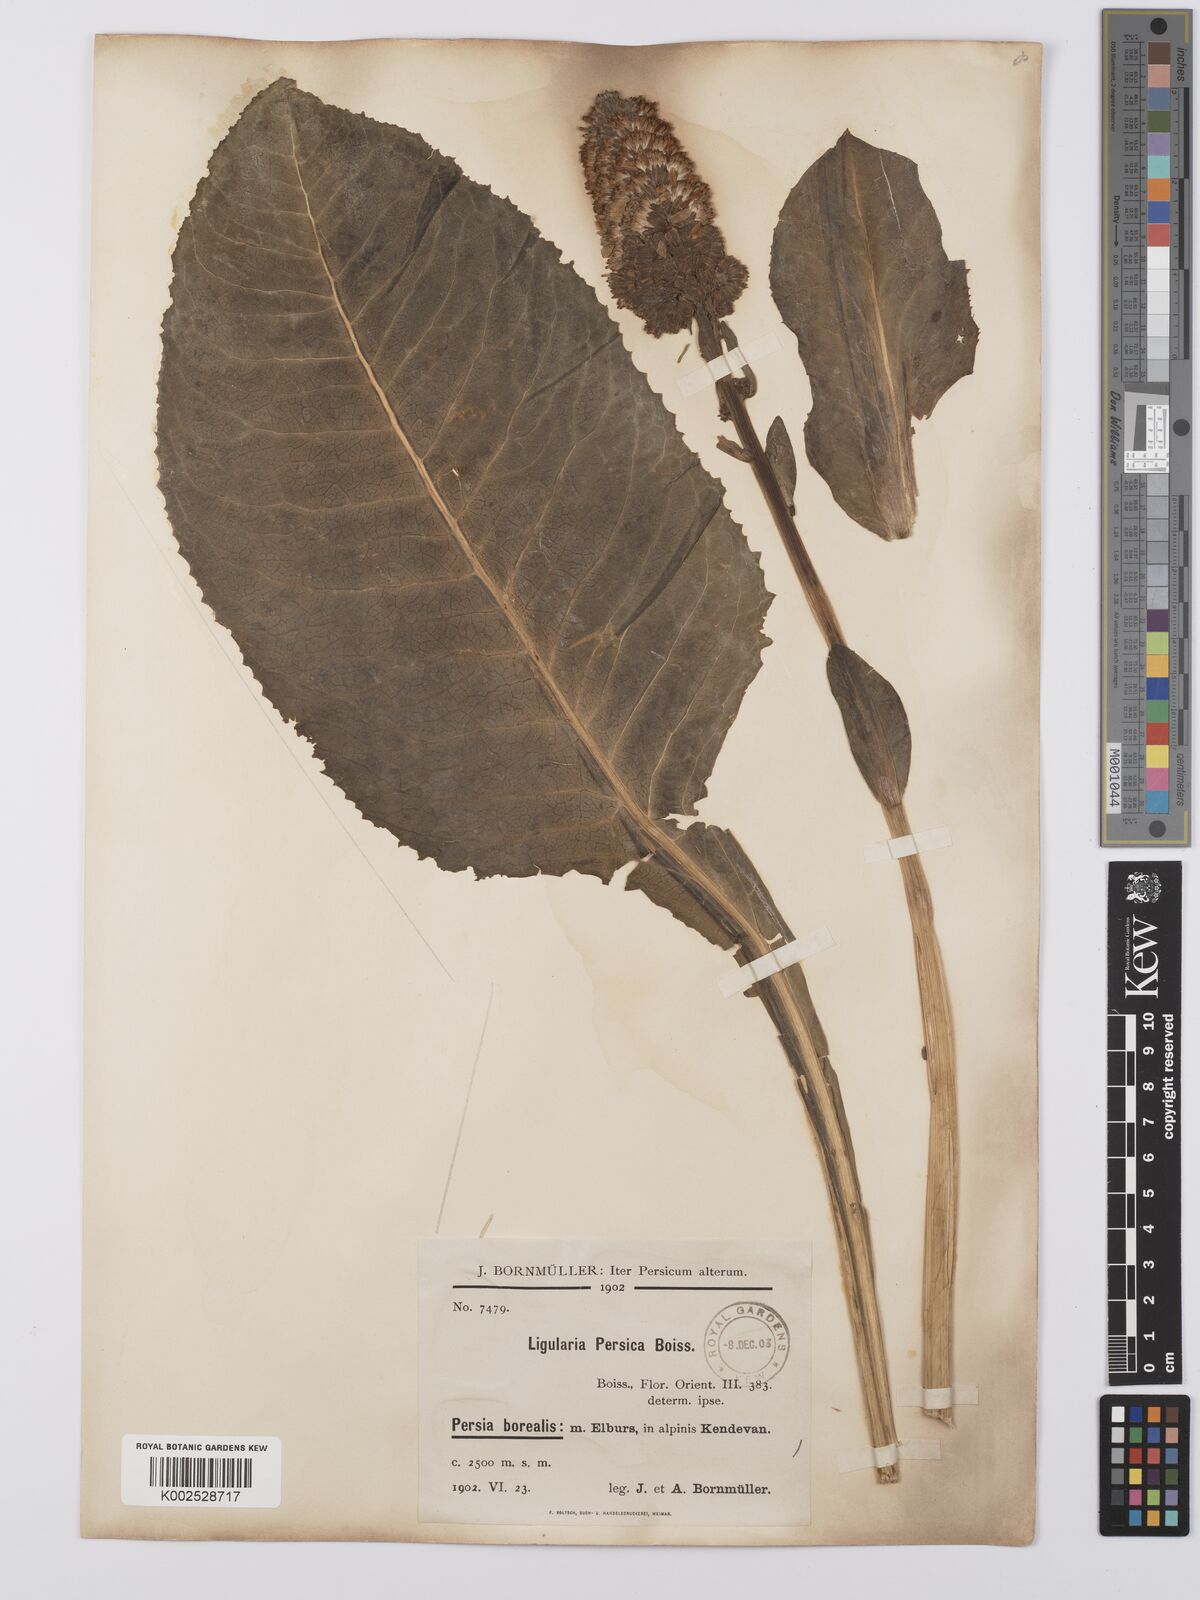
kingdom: Plantae
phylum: Tracheophyta
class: Magnoliopsida
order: Asterales
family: Asteraceae
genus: Dolichorrhiza
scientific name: Dolichorrhiza persica
